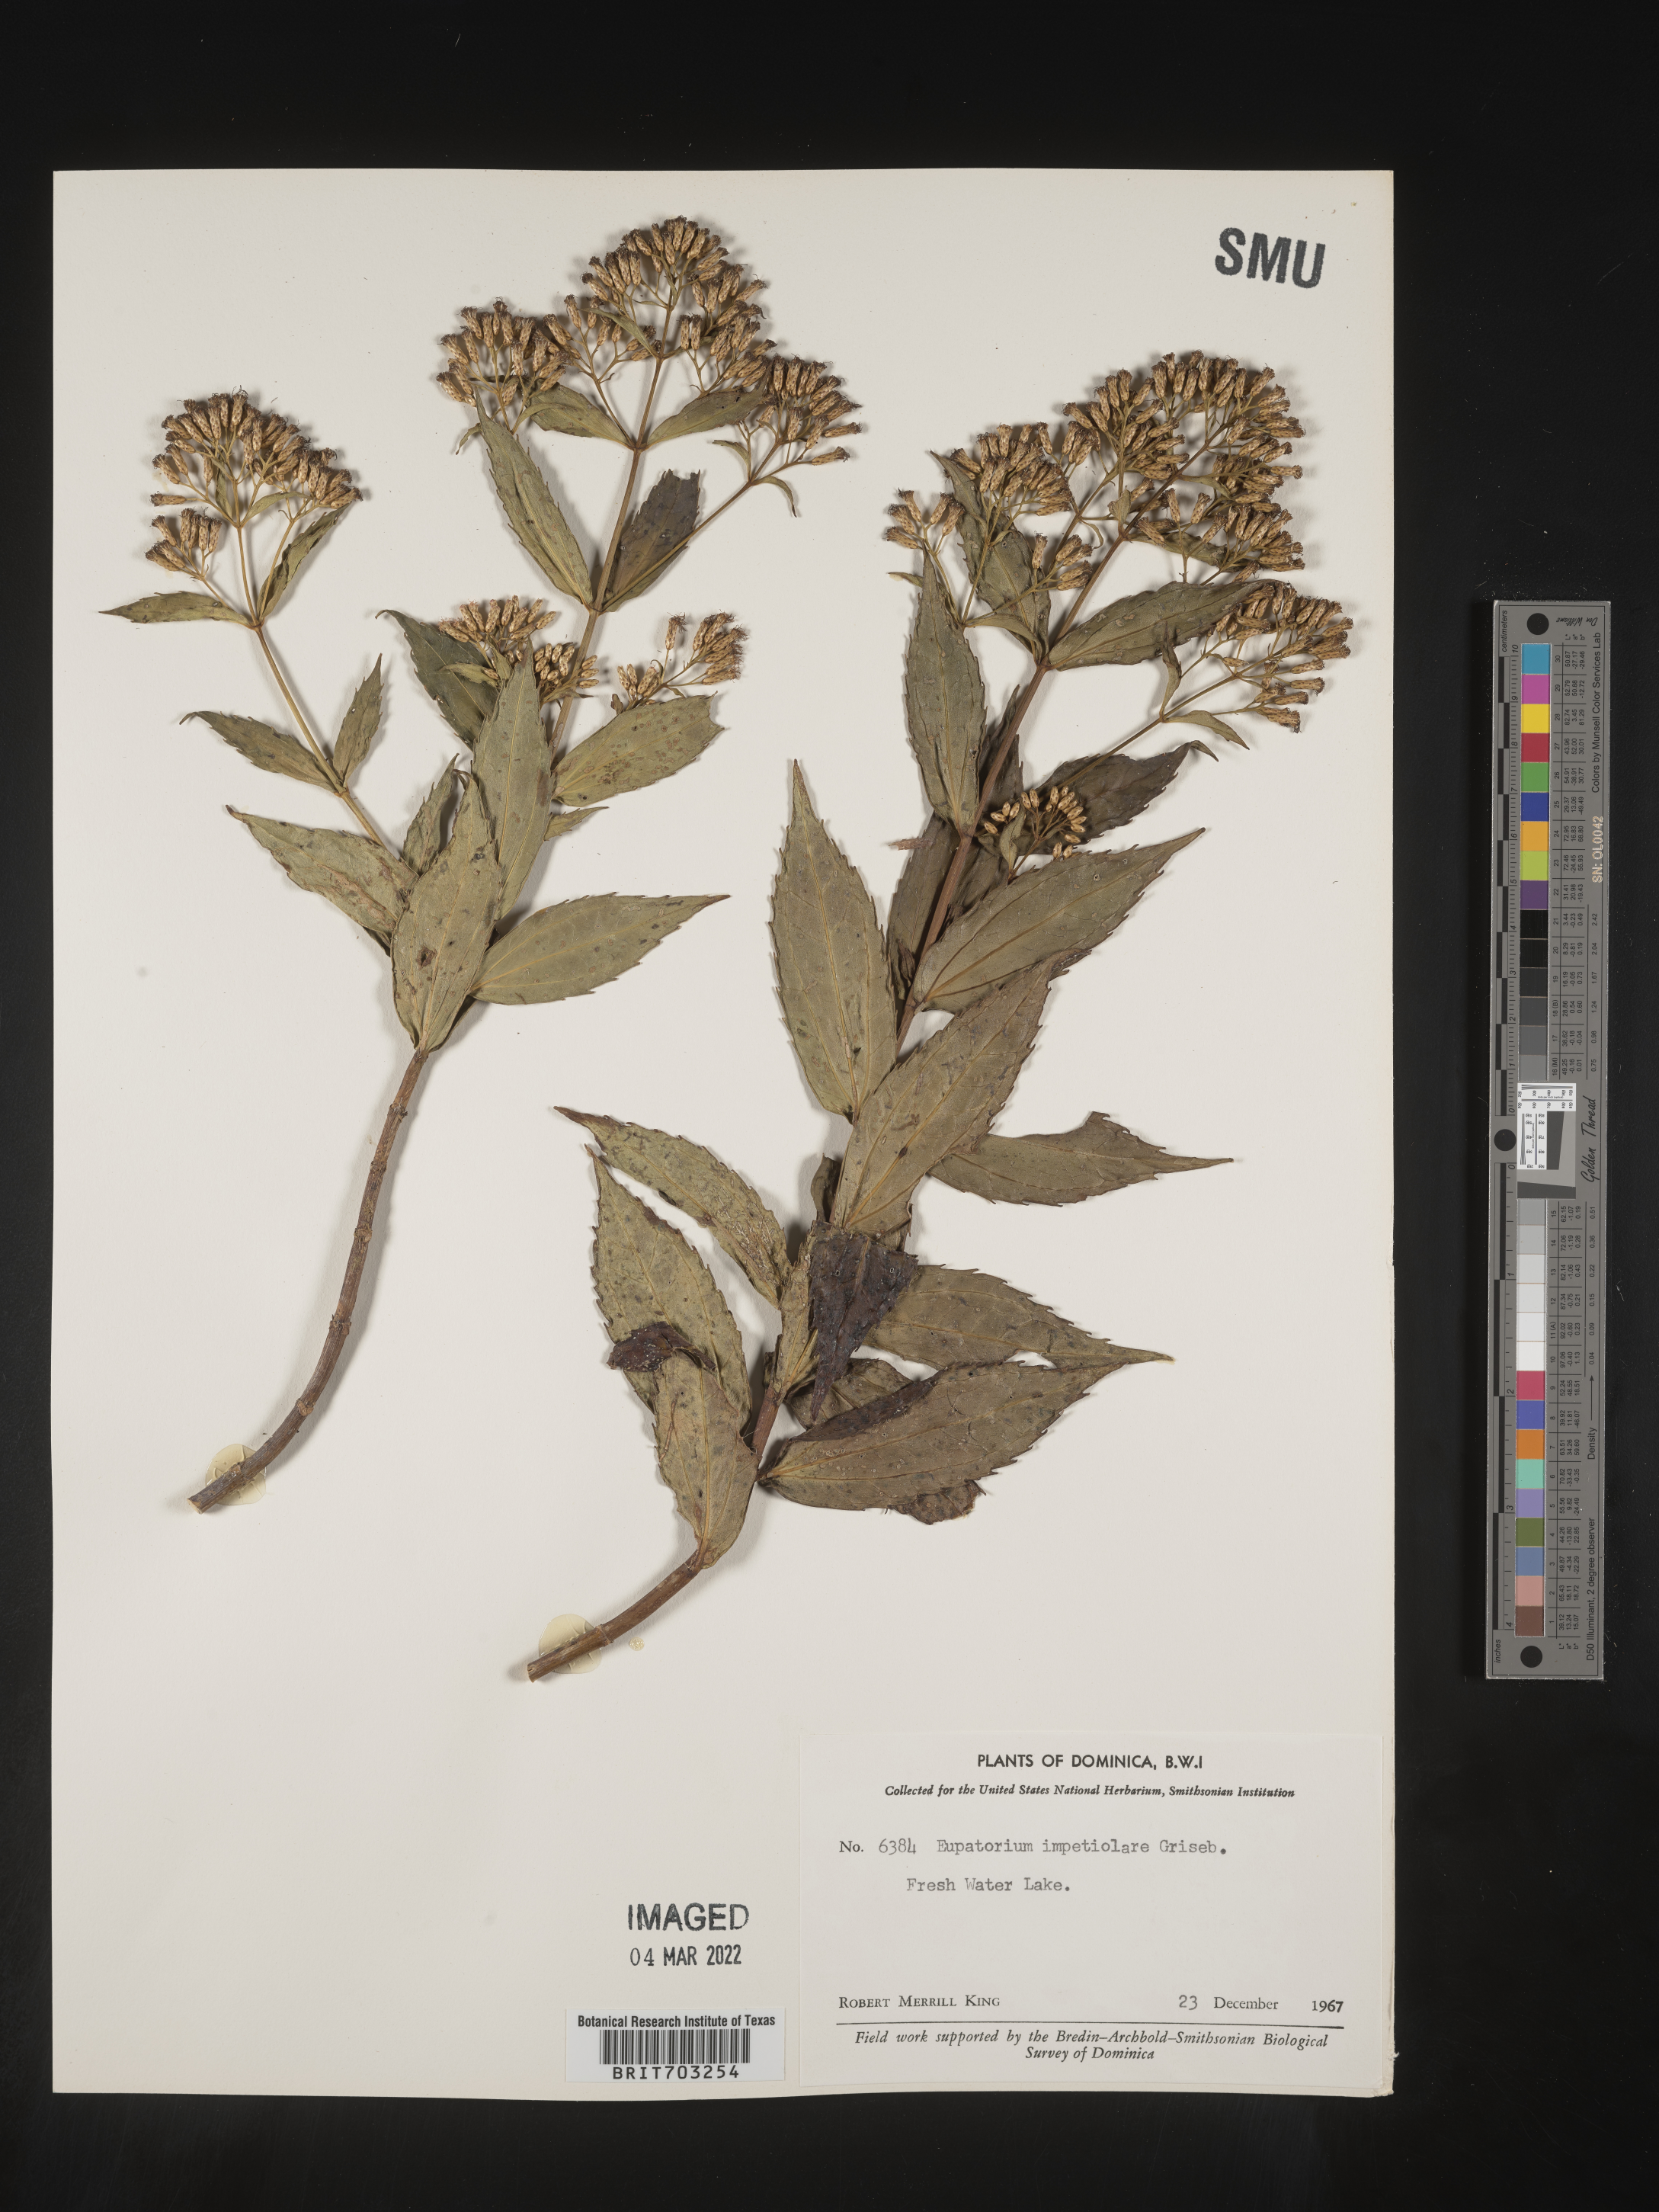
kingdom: Plantae
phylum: Tracheophyta
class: Magnoliopsida
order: Asterales
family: Asteraceae
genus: Eupatorium
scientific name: Eupatorium
